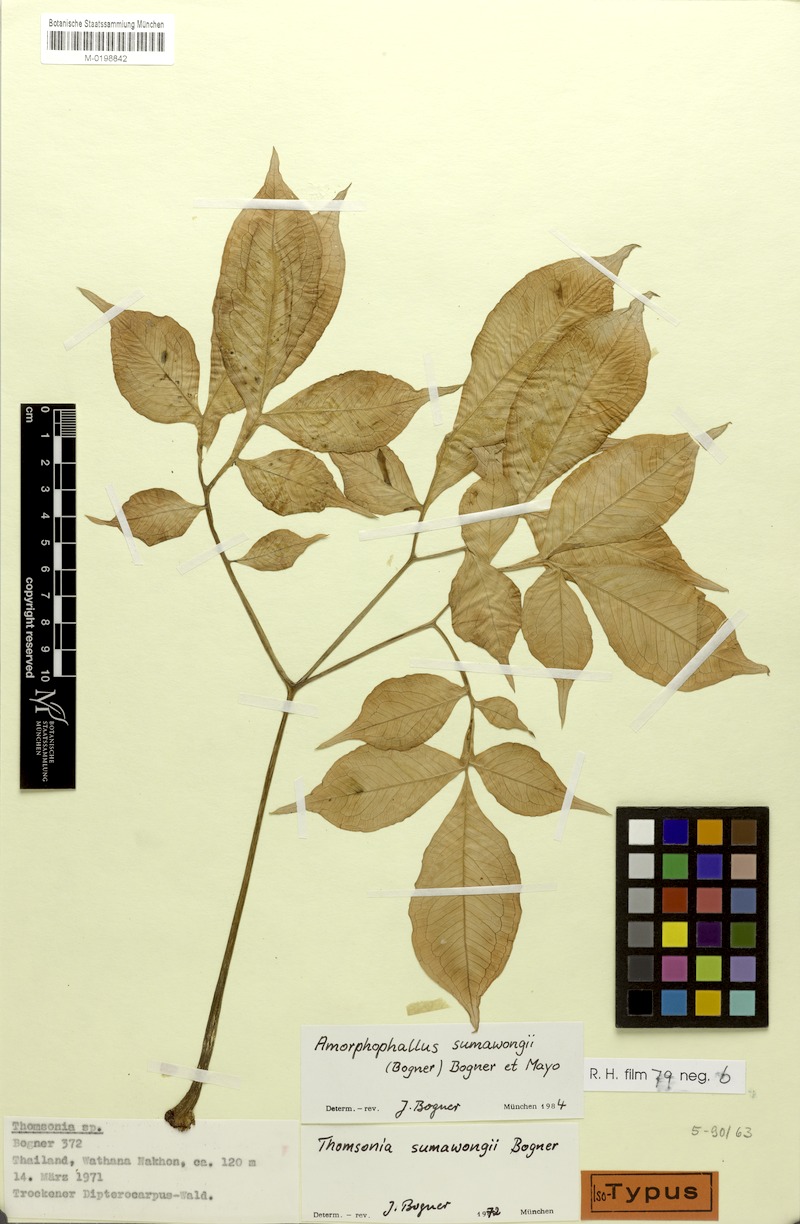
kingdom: Plantae
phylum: Tracheophyta
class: Liliopsida
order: Alismatales
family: Araceae
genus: Amorphophallus
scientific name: Amorphophallus sumawongii
